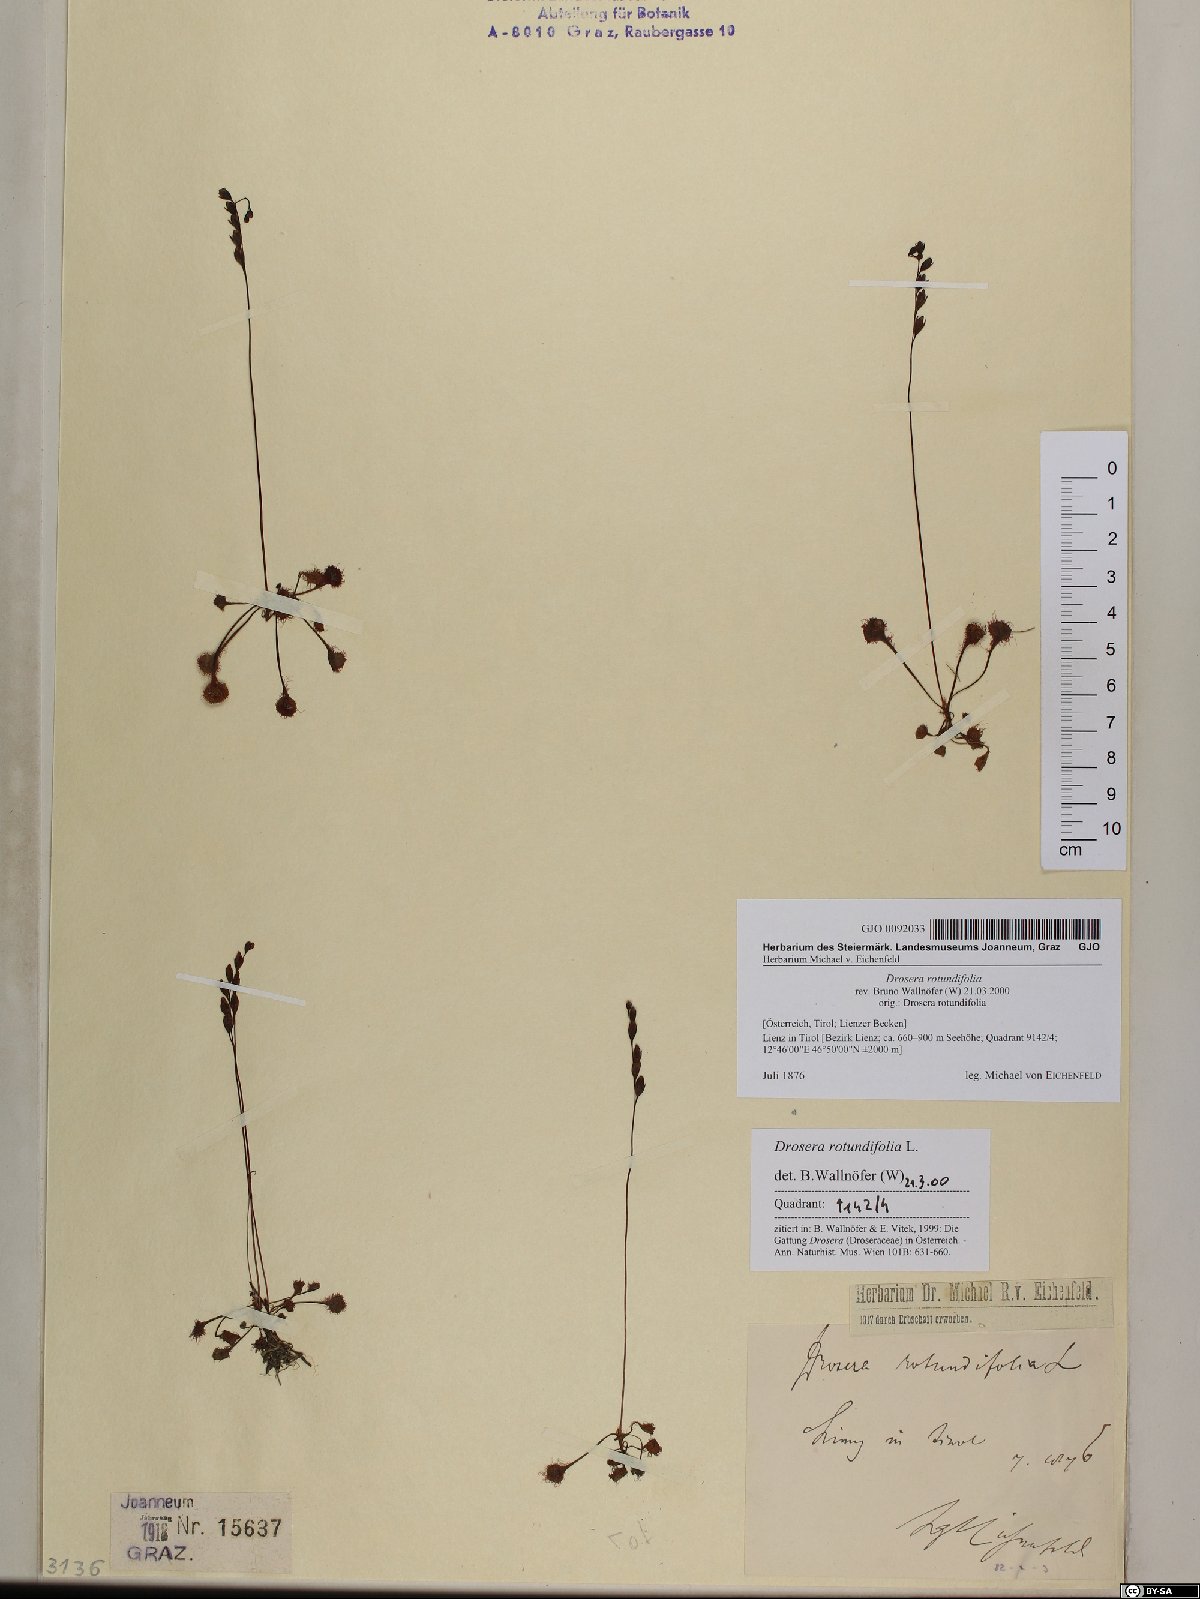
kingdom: Plantae
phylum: Tracheophyta
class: Magnoliopsida
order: Caryophyllales
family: Droseraceae
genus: Drosera
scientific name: Drosera rotundifolia
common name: Round-leaved sundew
